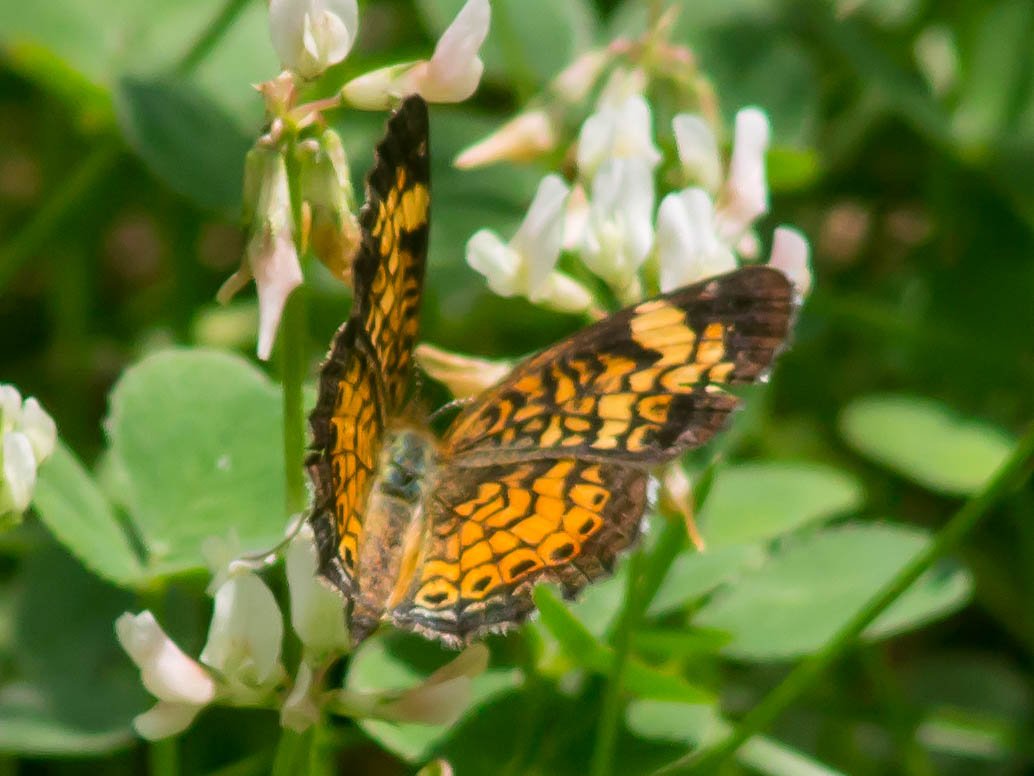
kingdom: Animalia
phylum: Arthropoda
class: Insecta
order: Lepidoptera
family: Nymphalidae
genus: Phyciodes
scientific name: Phyciodes tharos
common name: Pearl Crescent
